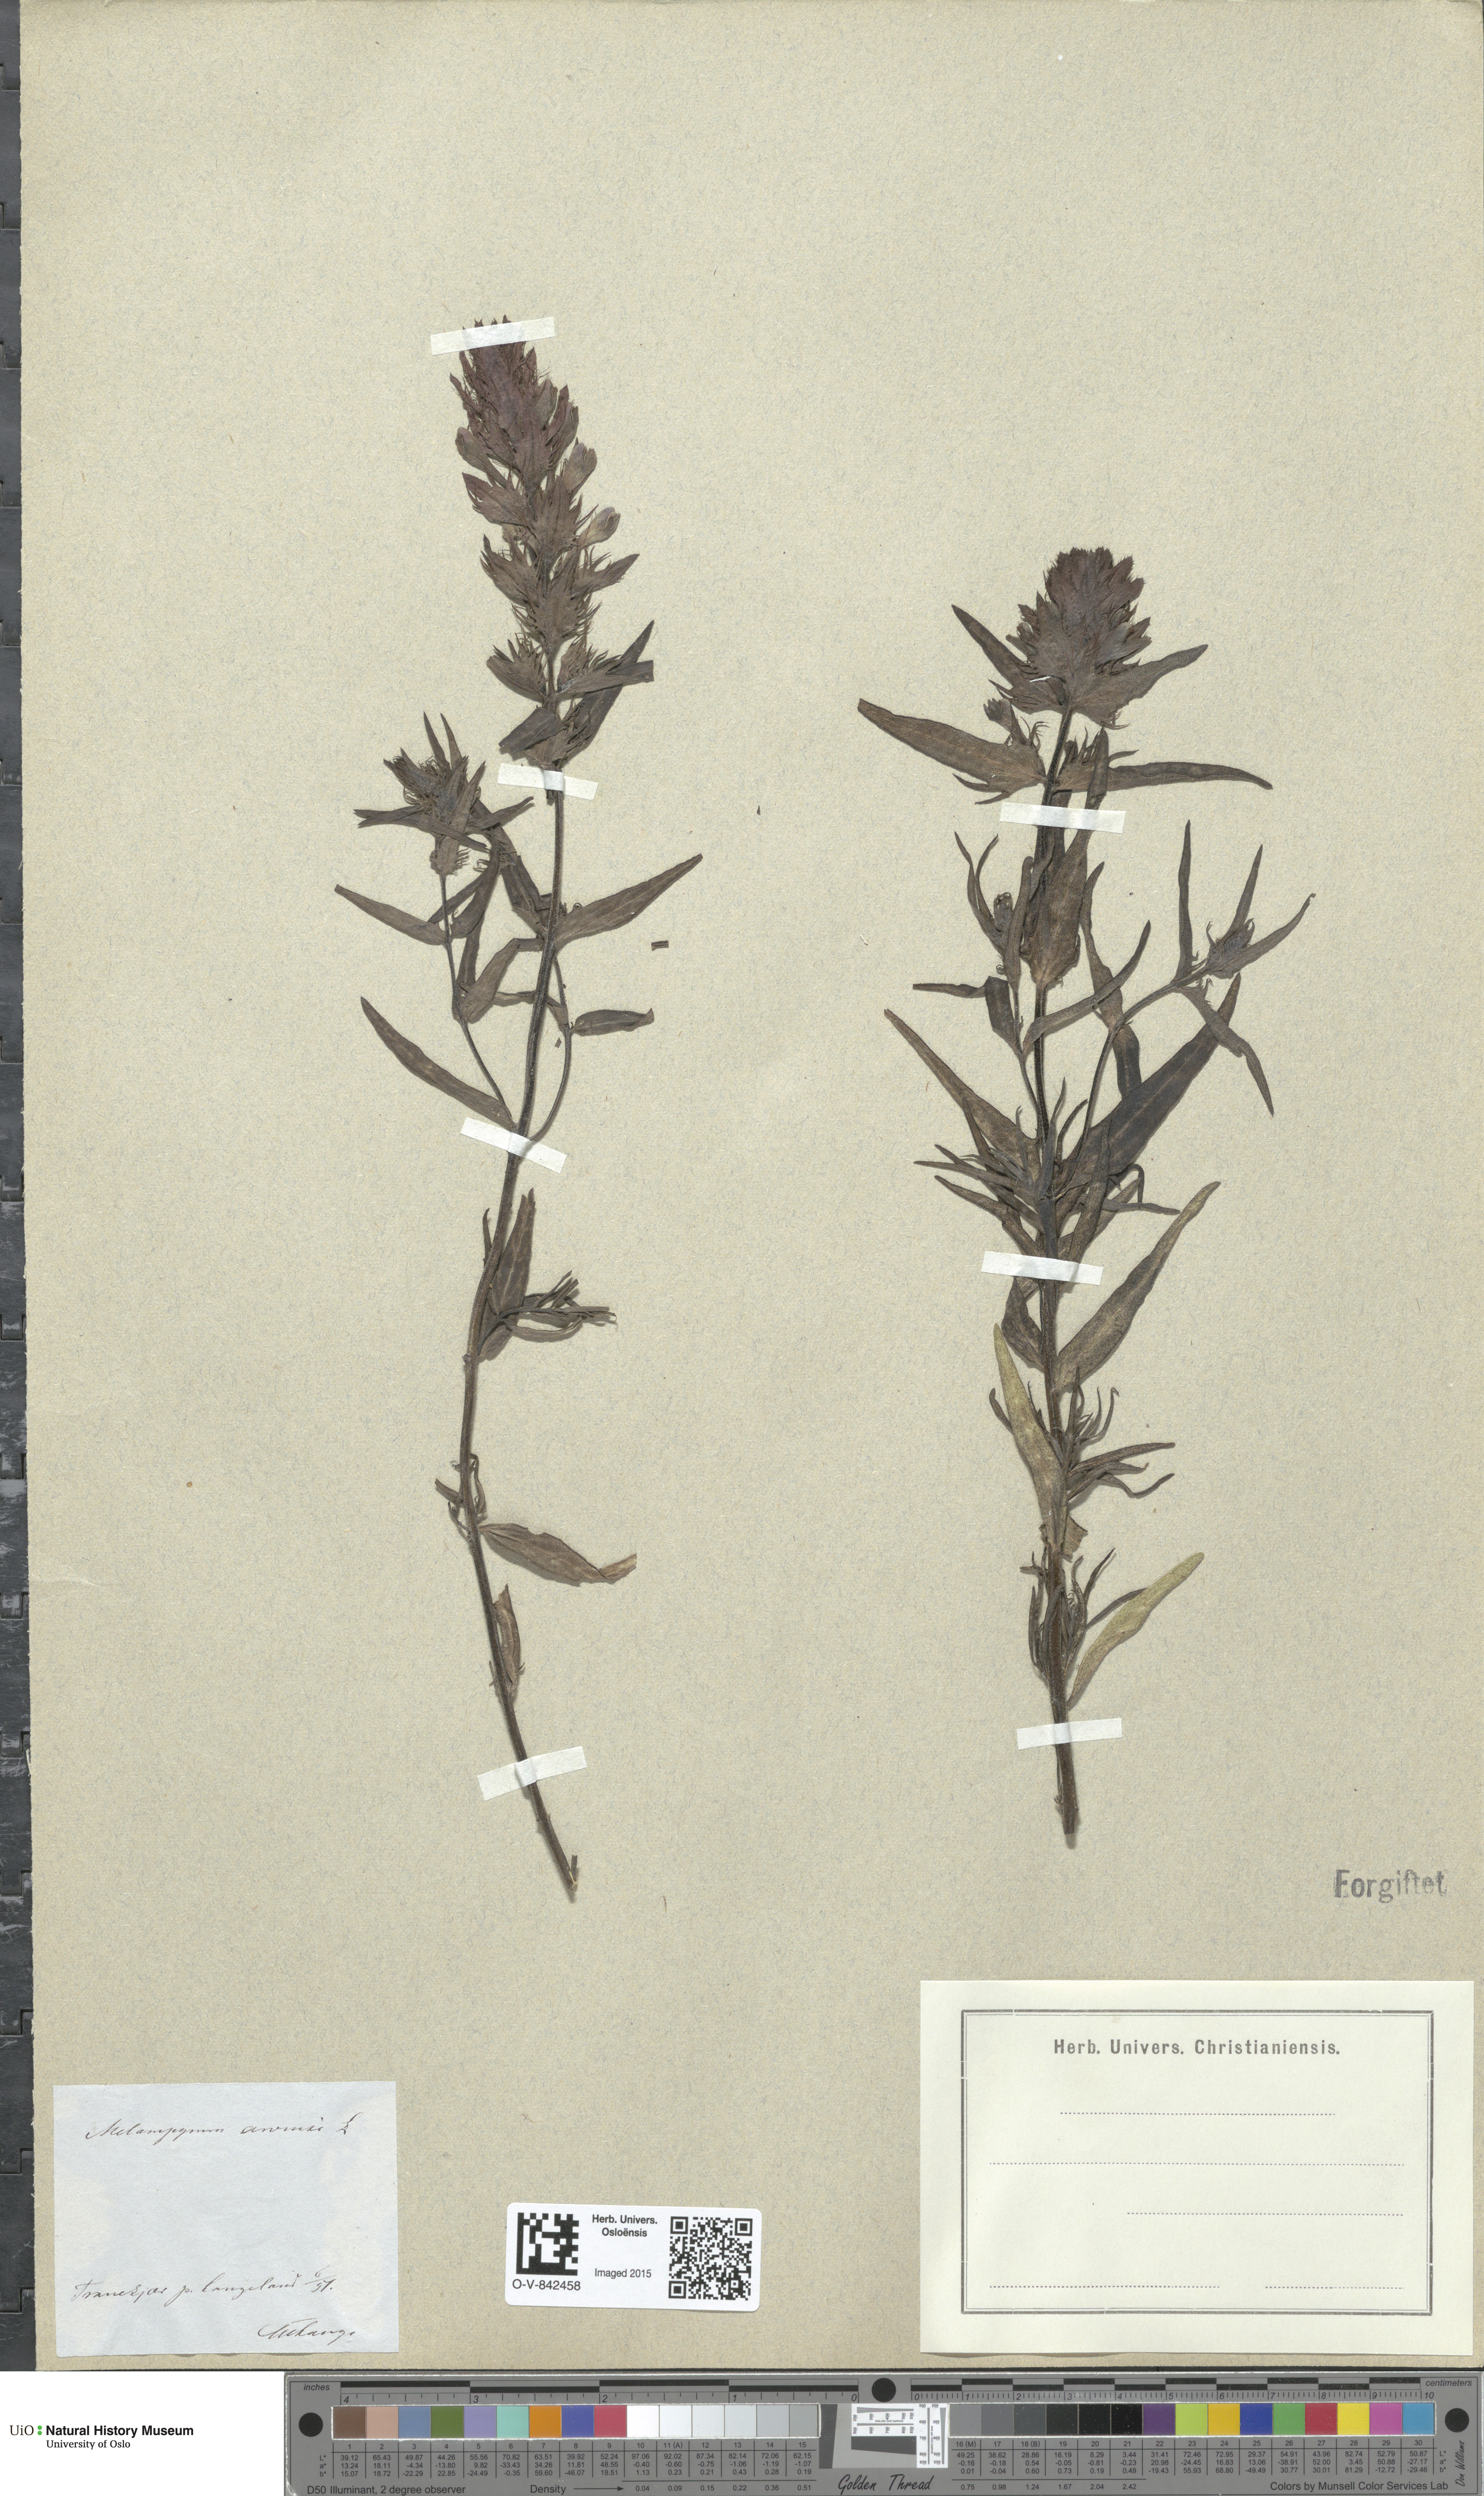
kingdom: Plantae
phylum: Tracheophyta
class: Magnoliopsida
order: Lamiales
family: Orobanchaceae
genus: Melampyrum
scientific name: Melampyrum arvense
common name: Field cow-wheat
